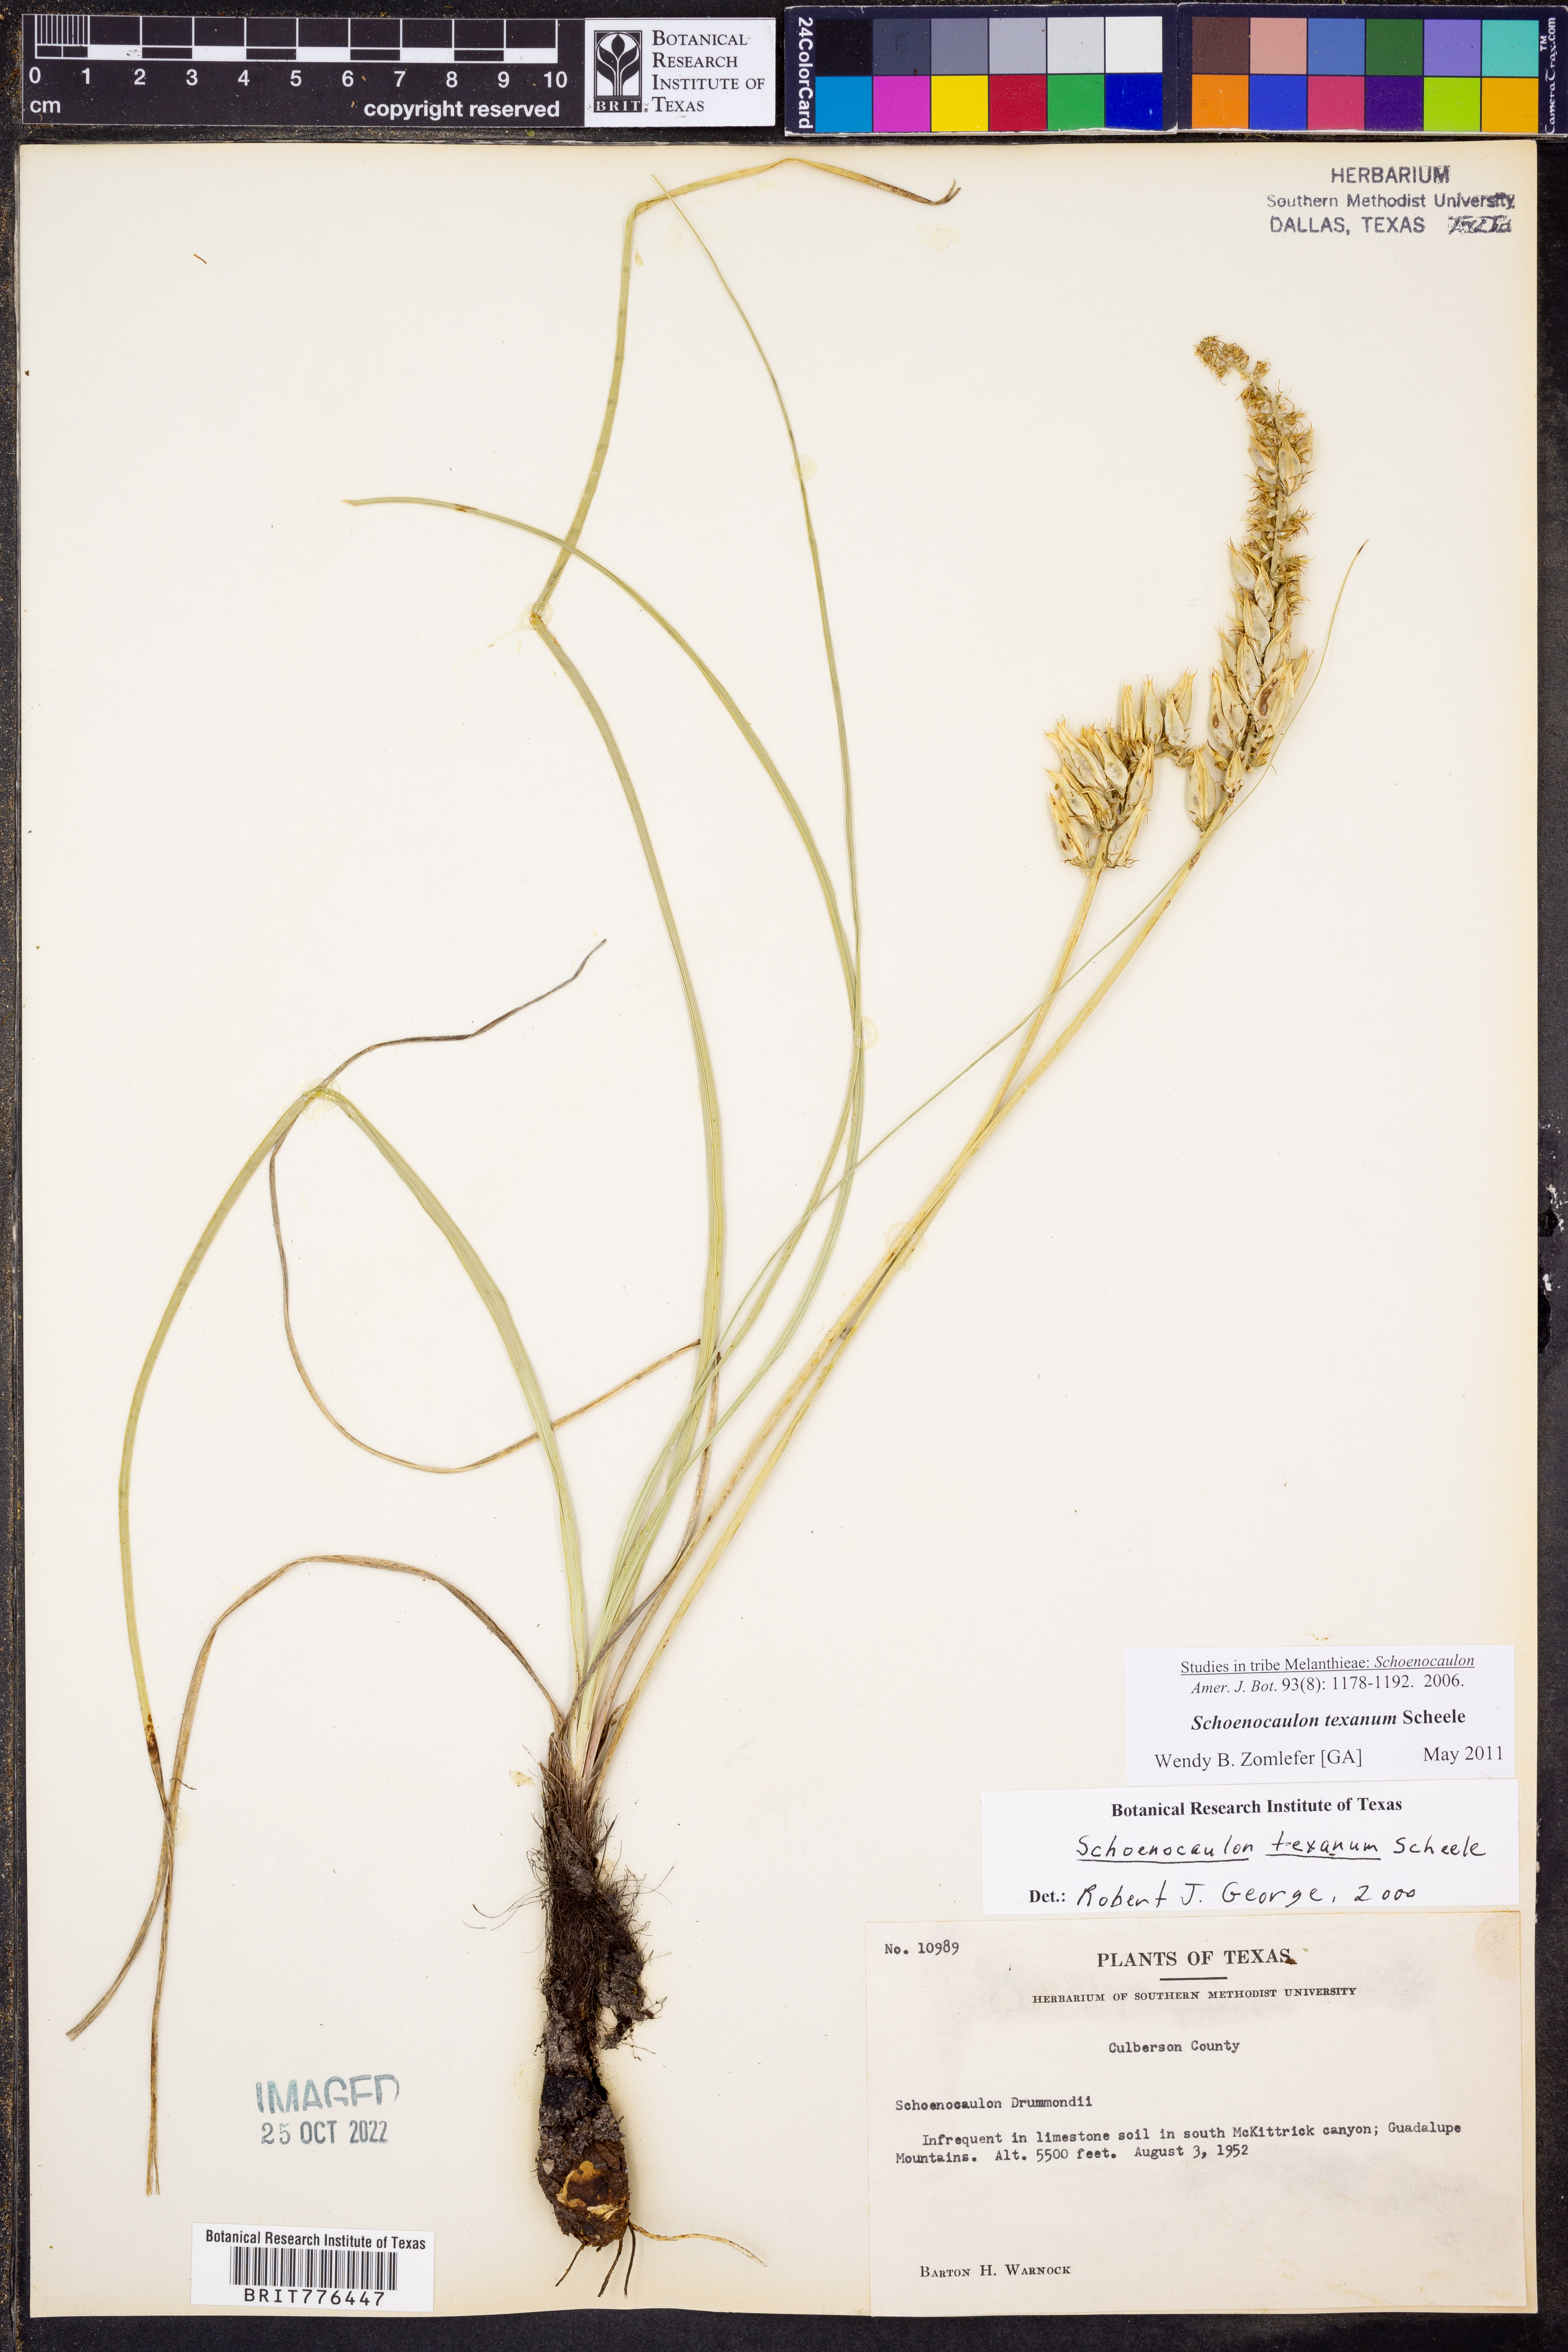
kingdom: Plantae
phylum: Tracheophyta
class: Liliopsida
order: Liliales
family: Melanthiaceae
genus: Schoenocaulon
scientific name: Schoenocaulon texanum
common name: Texas feather-shank
